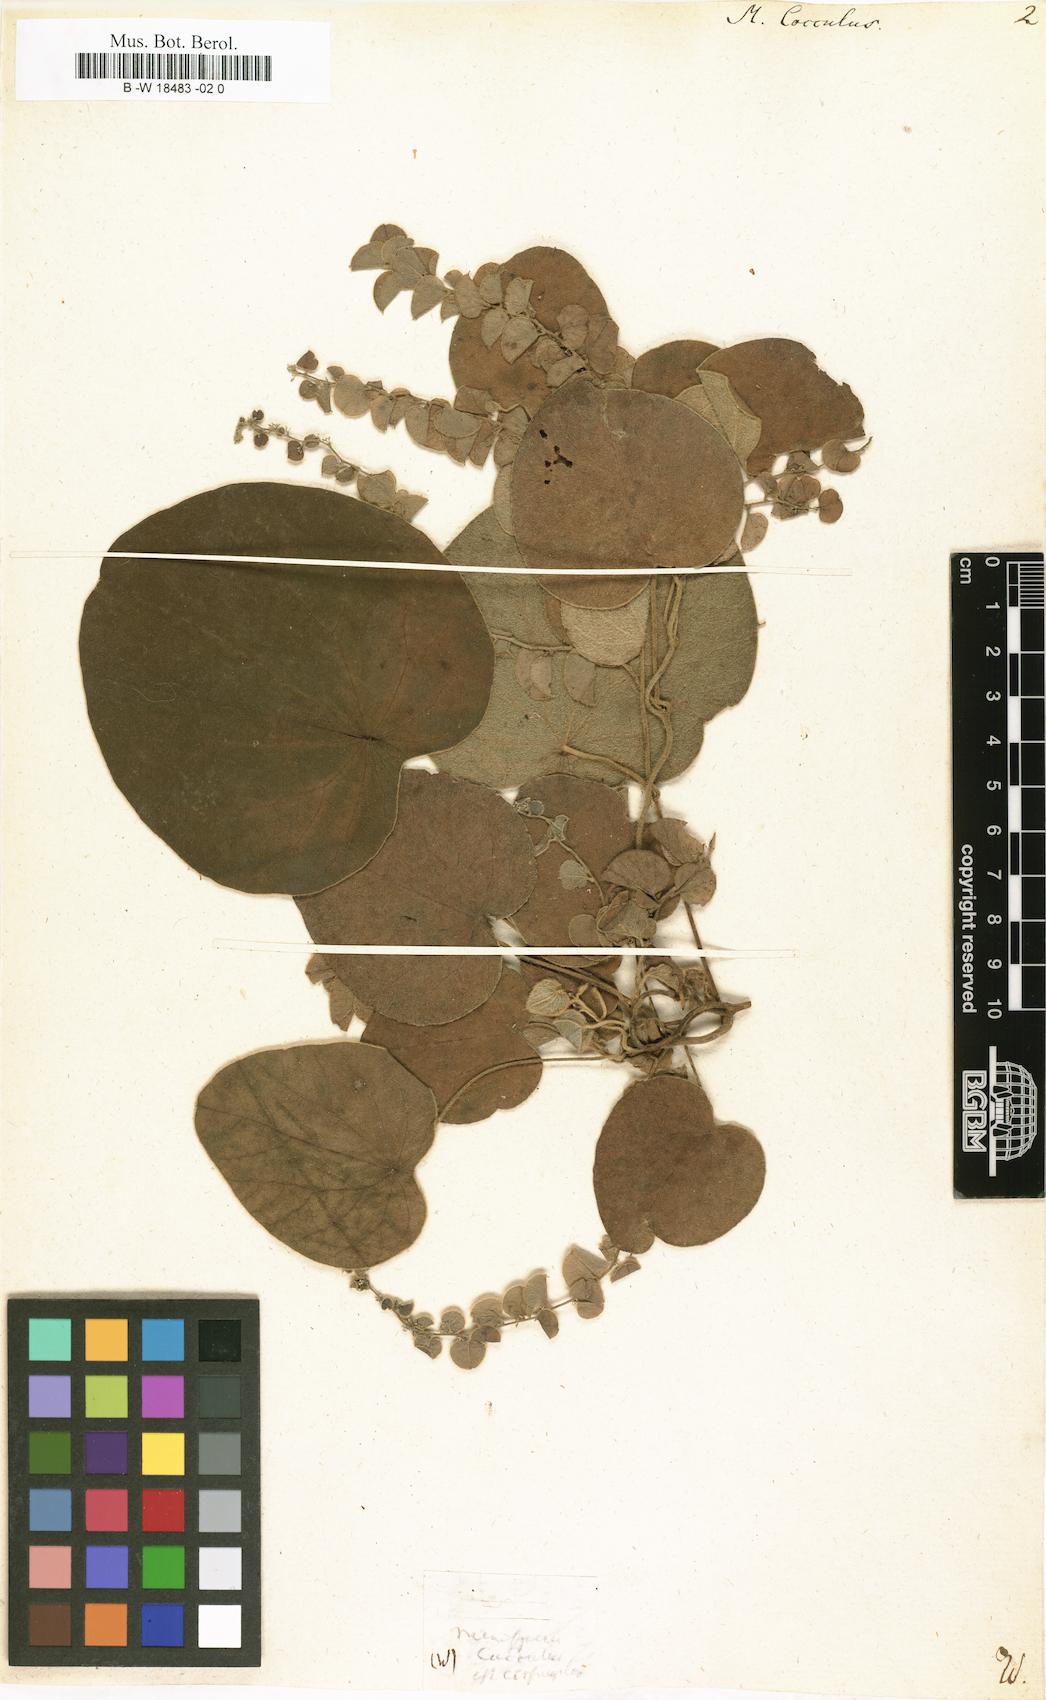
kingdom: Plantae
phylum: Tracheophyta
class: Magnoliopsida
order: Ranunculales
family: Menispermaceae
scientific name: Menispermaceae
